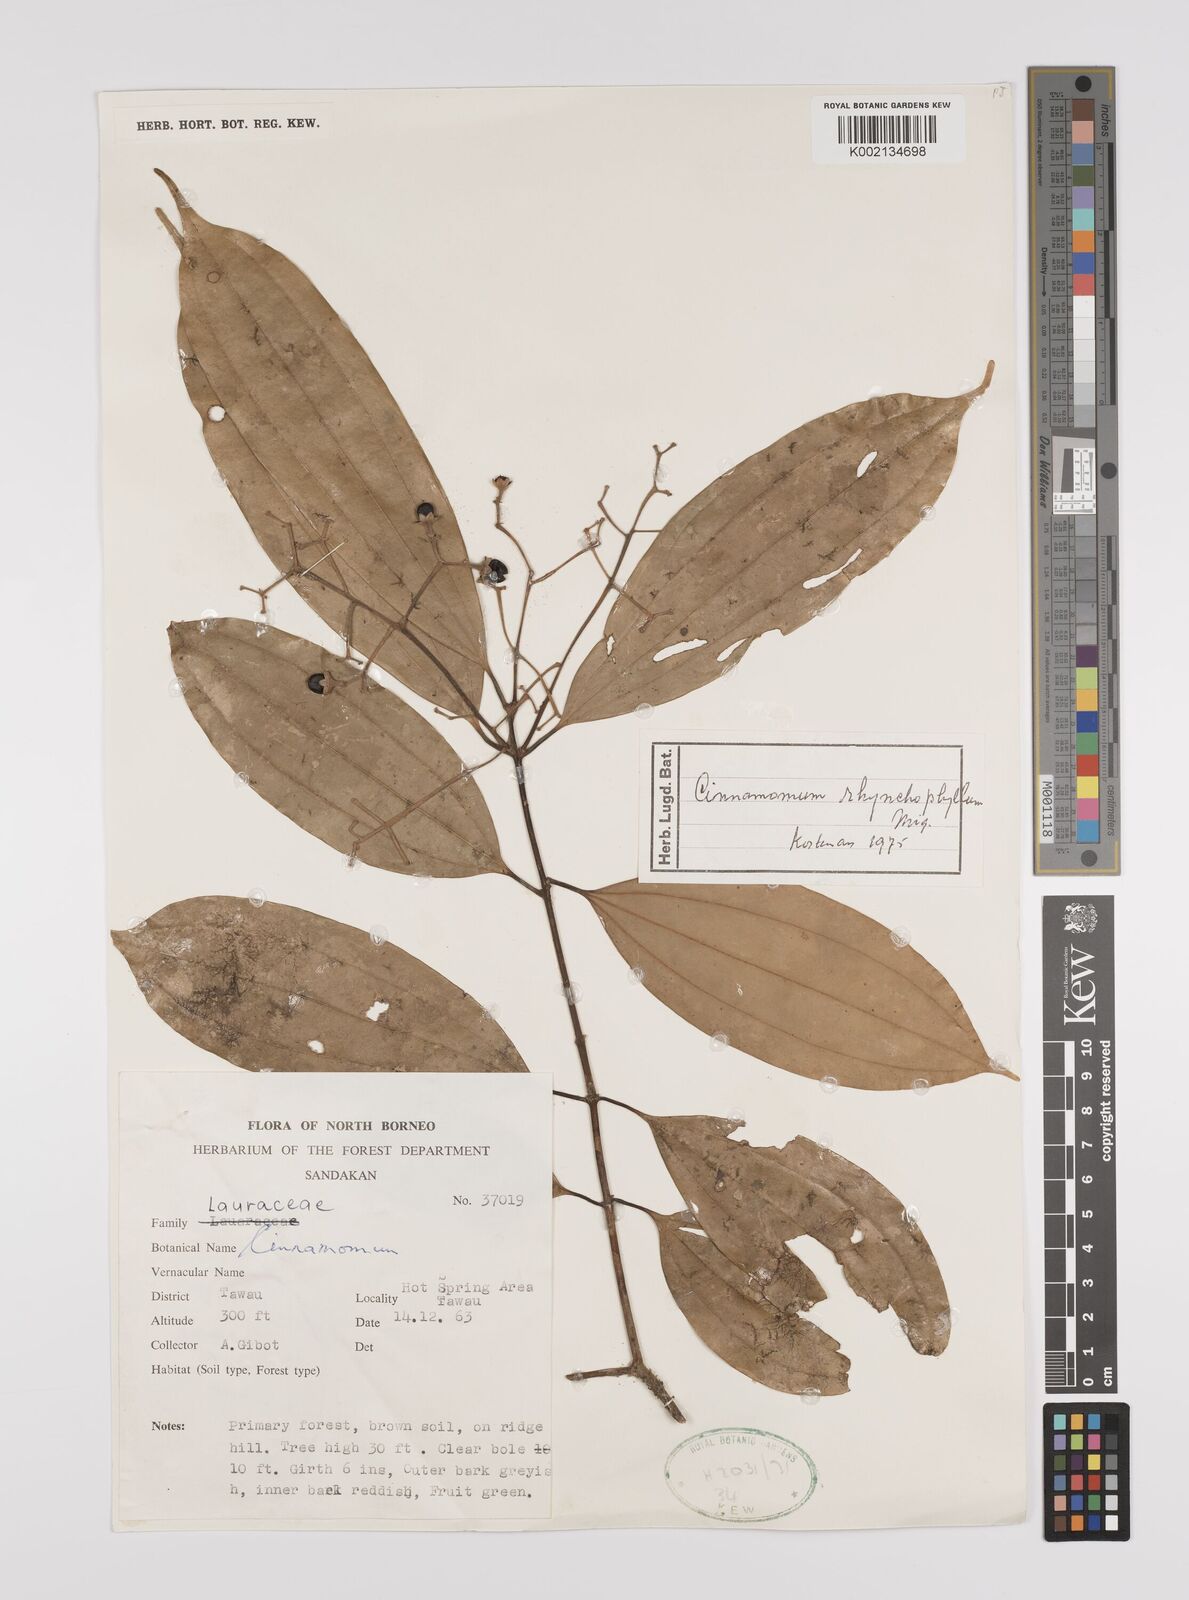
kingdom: Plantae
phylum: Tracheophyta
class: Magnoliopsida
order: Laurales
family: Lauraceae
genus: Cinnamomum
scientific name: Cinnamomum rhynchophyllum
